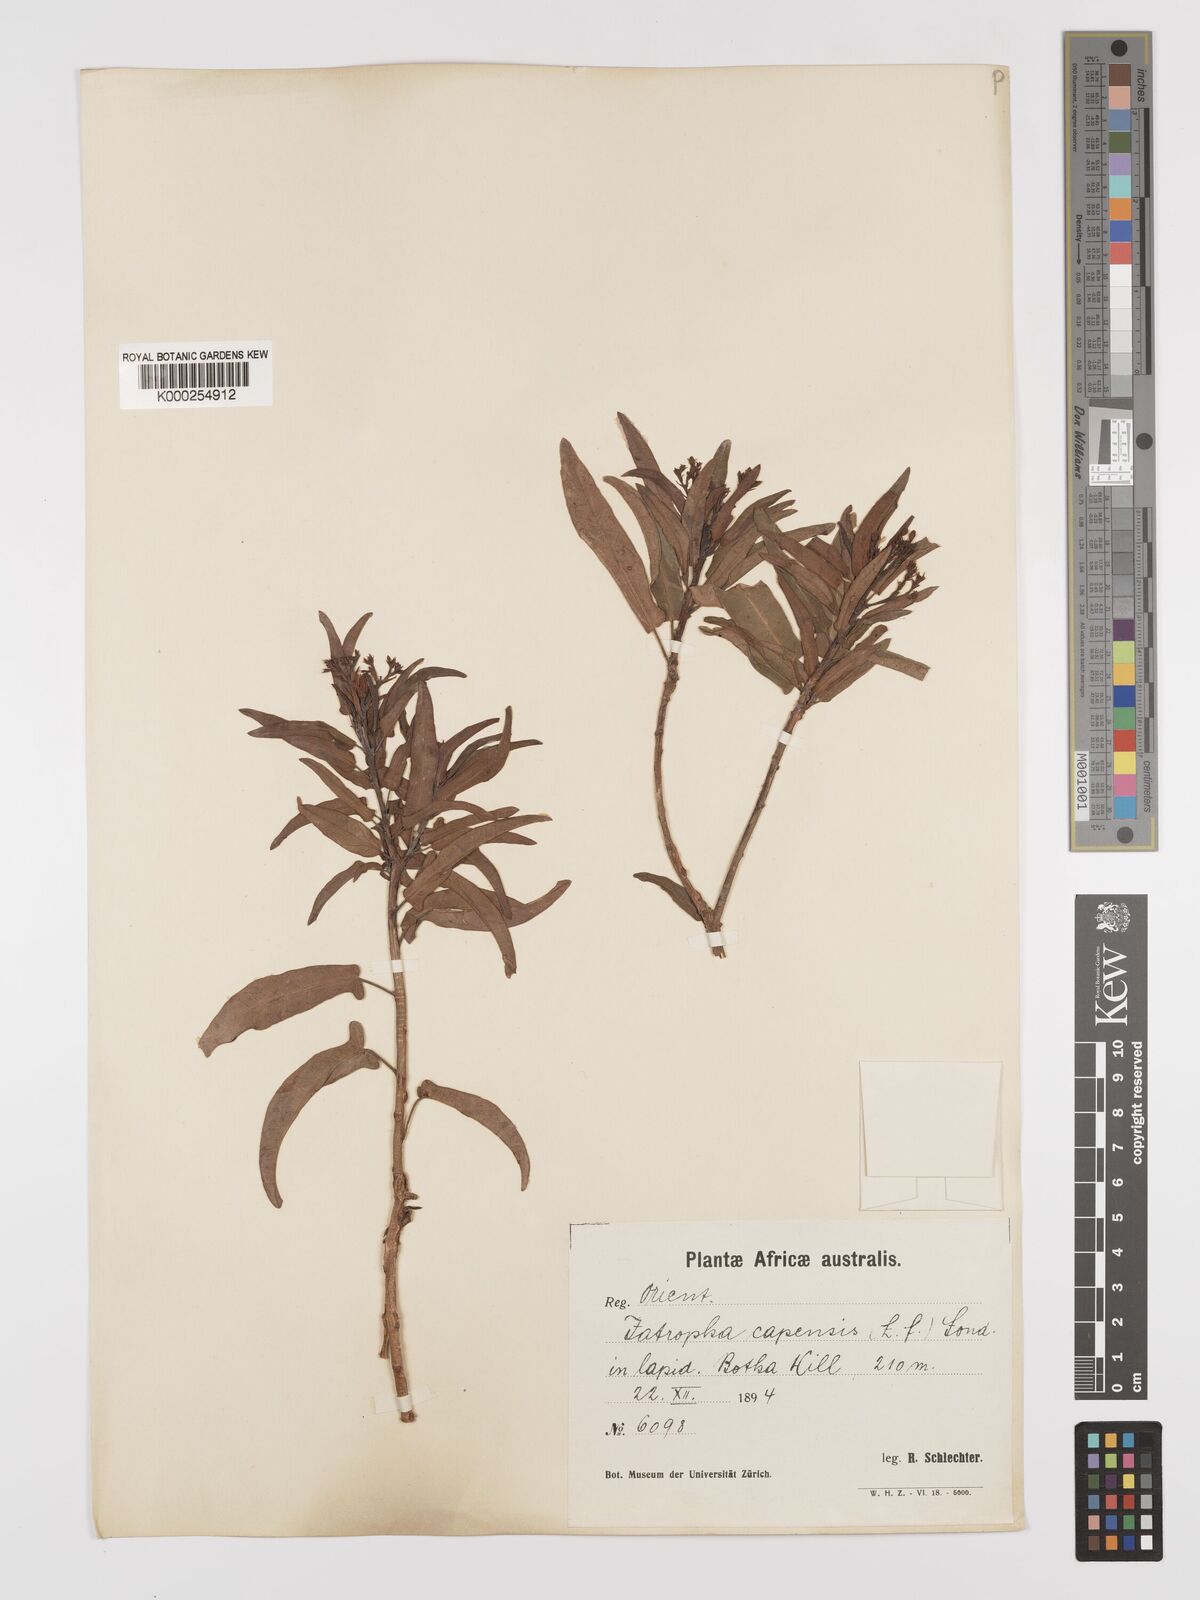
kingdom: Plantae
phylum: Tracheophyta
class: Magnoliopsida
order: Malpighiales
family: Euphorbiaceae
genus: Jatropha
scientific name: Jatropha capensis
